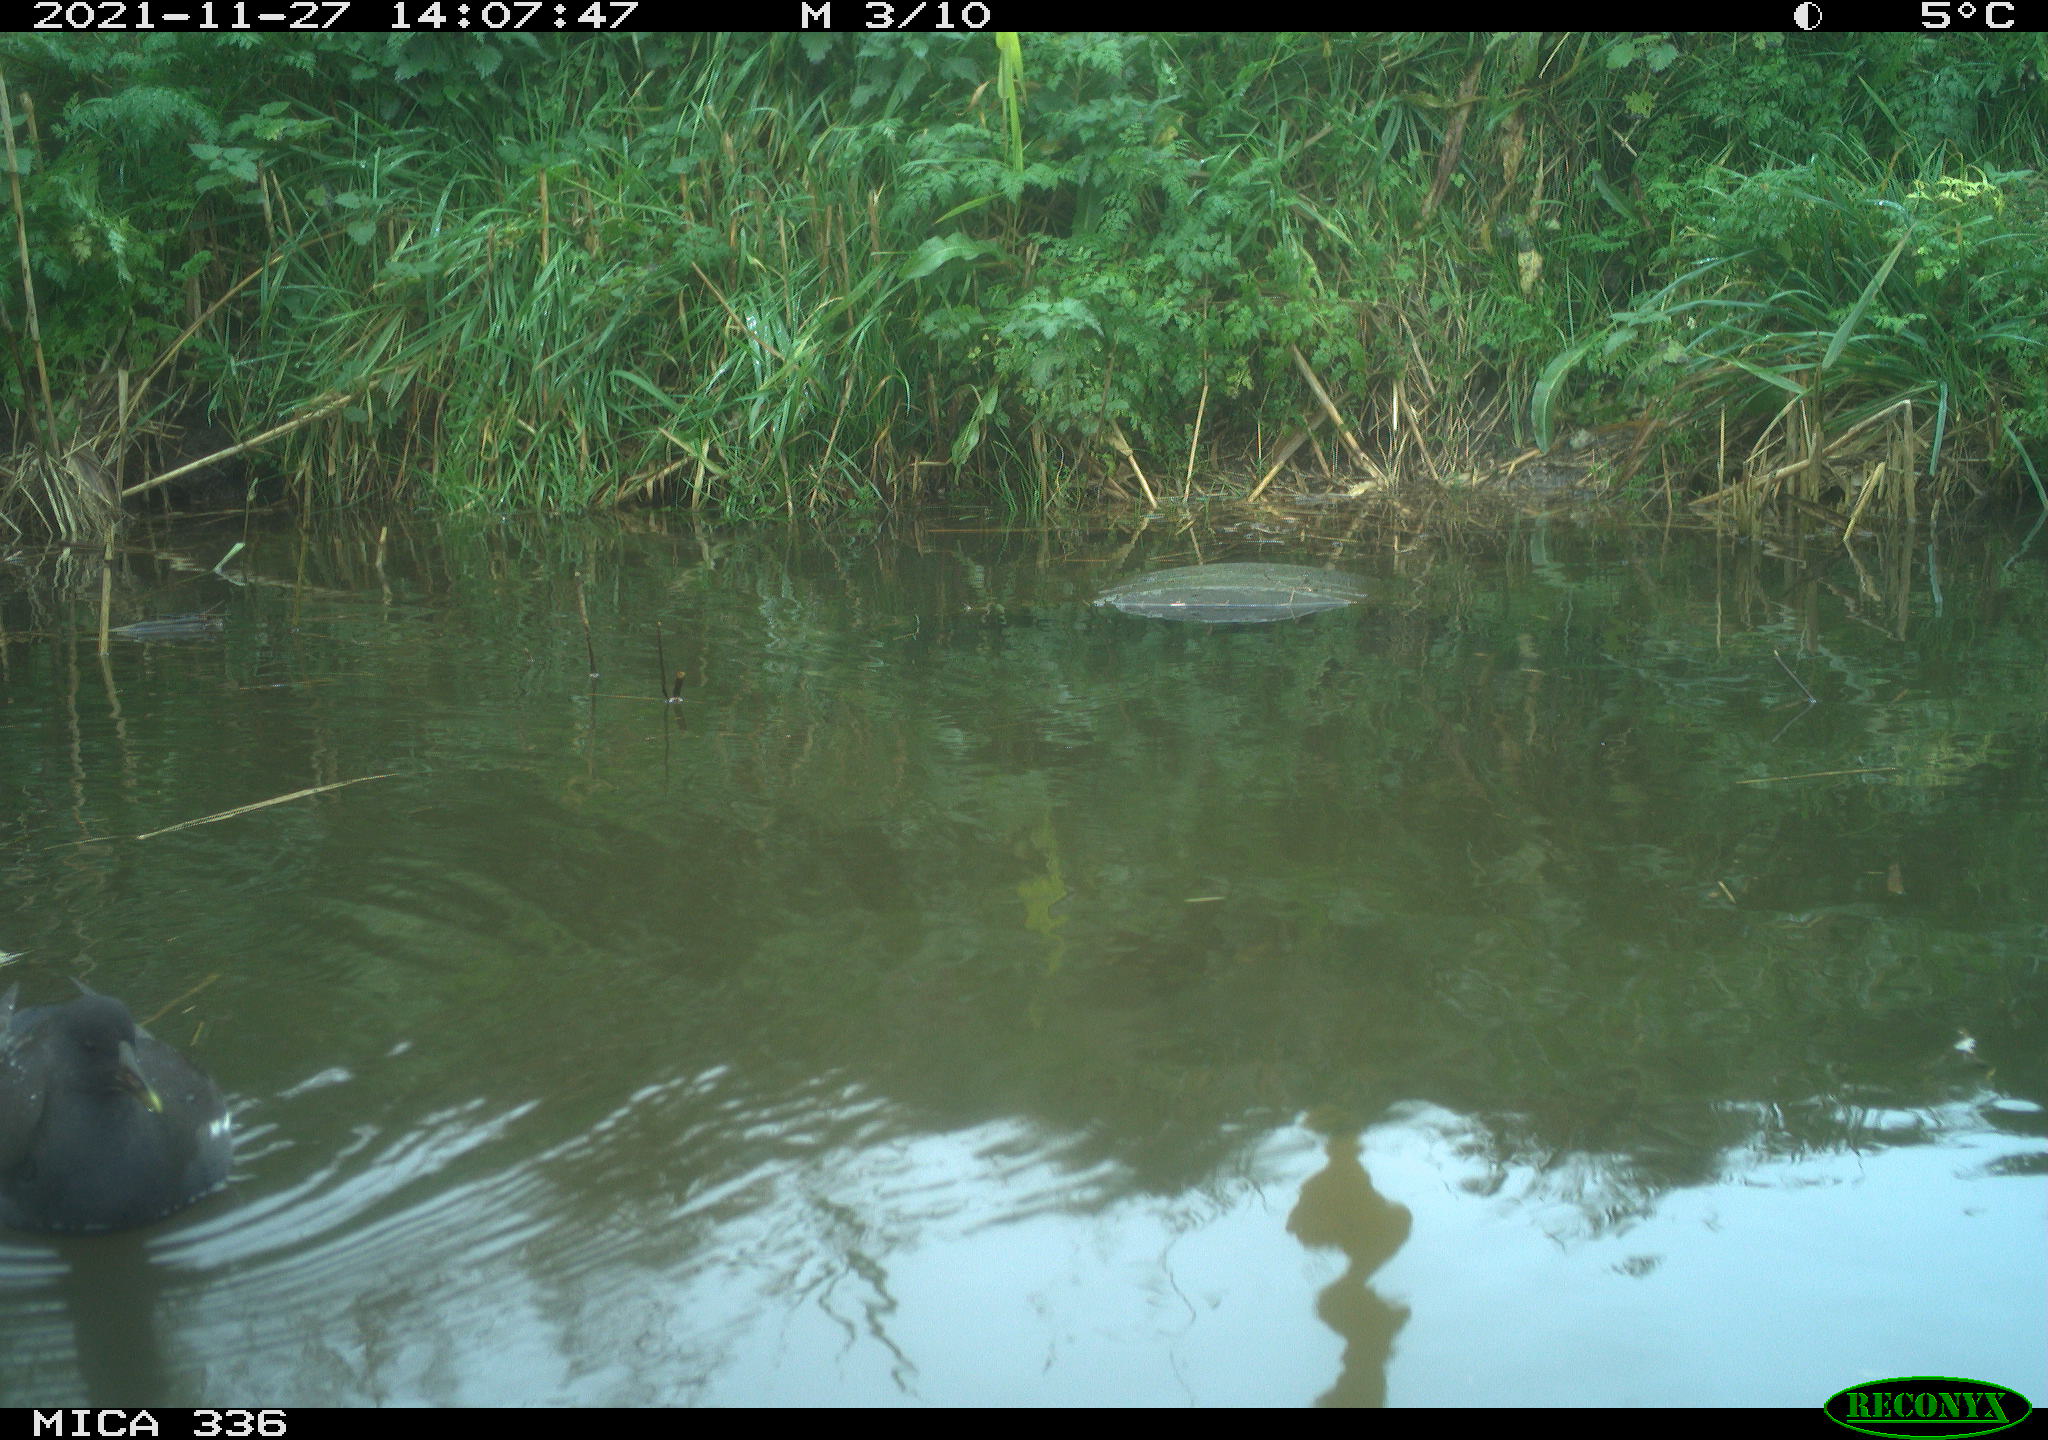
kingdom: Animalia
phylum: Chordata
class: Aves
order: Gruiformes
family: Rallidae
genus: Gallinula
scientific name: Gallinula chloropus
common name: Common moorhen
